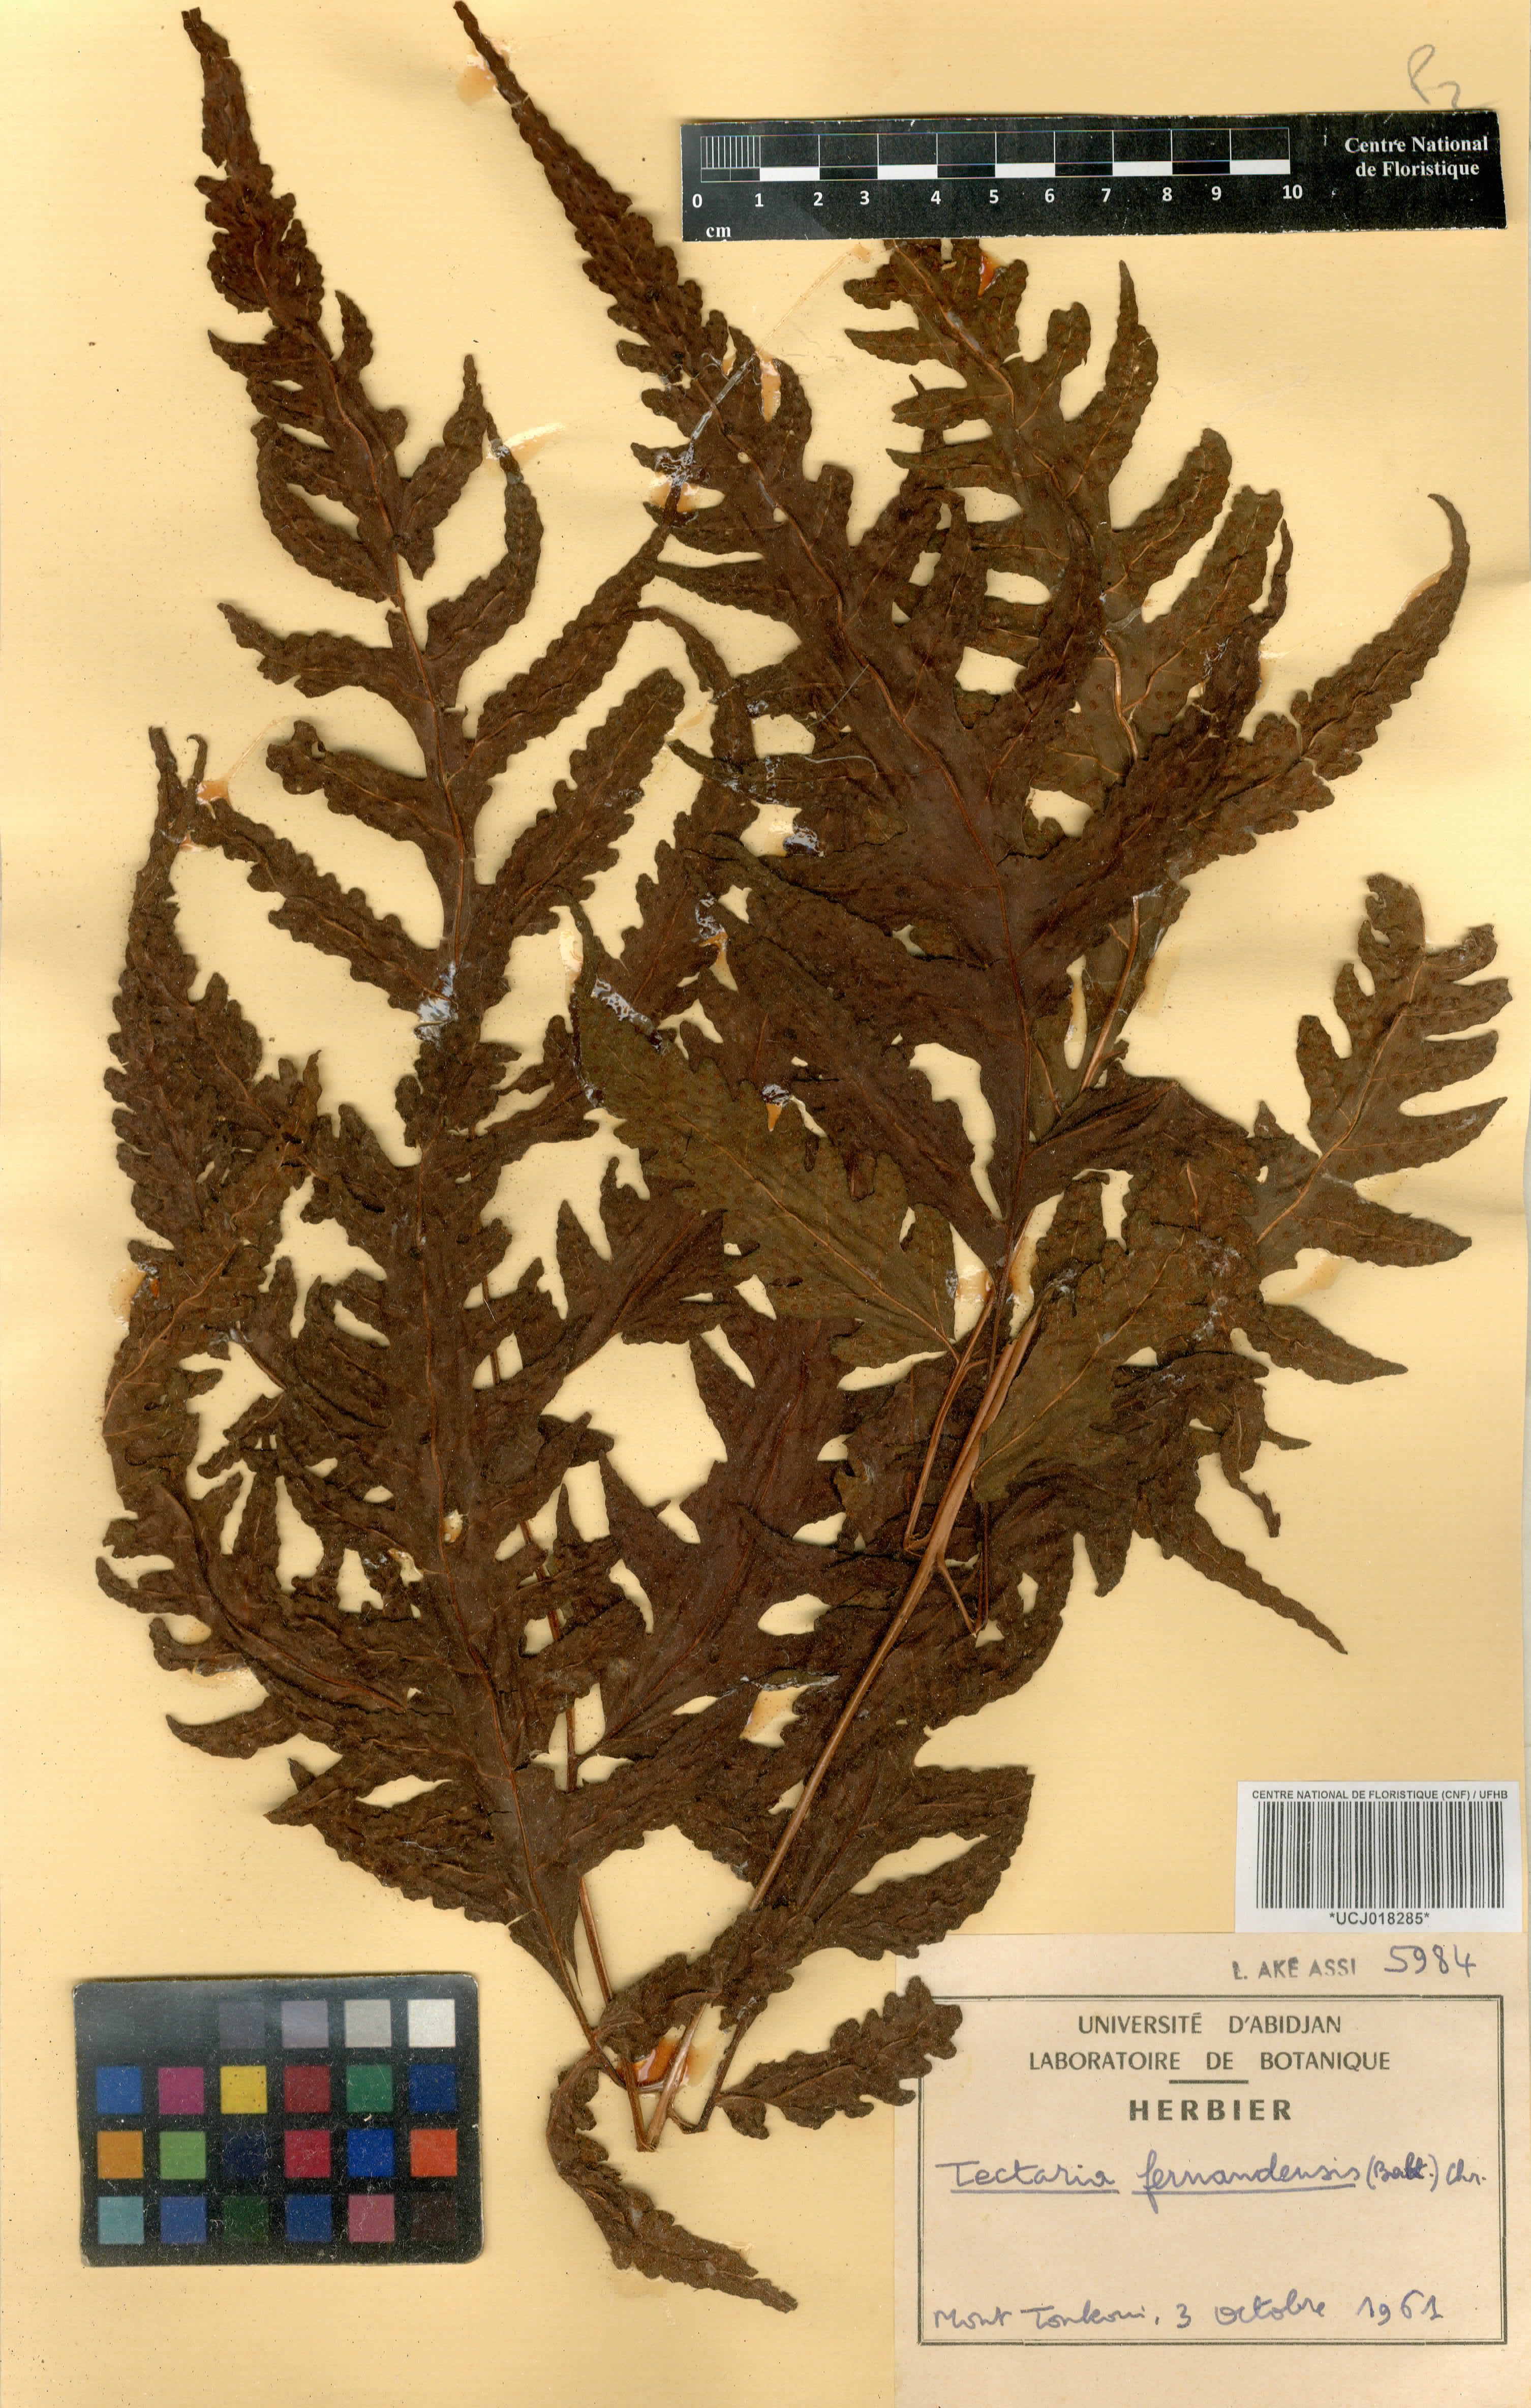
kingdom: Plantae
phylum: Tracheophyta
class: Polypodiopsida
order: Polypodiales
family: Tectariaceae
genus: Tectaria
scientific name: Tectaria fernandensis
